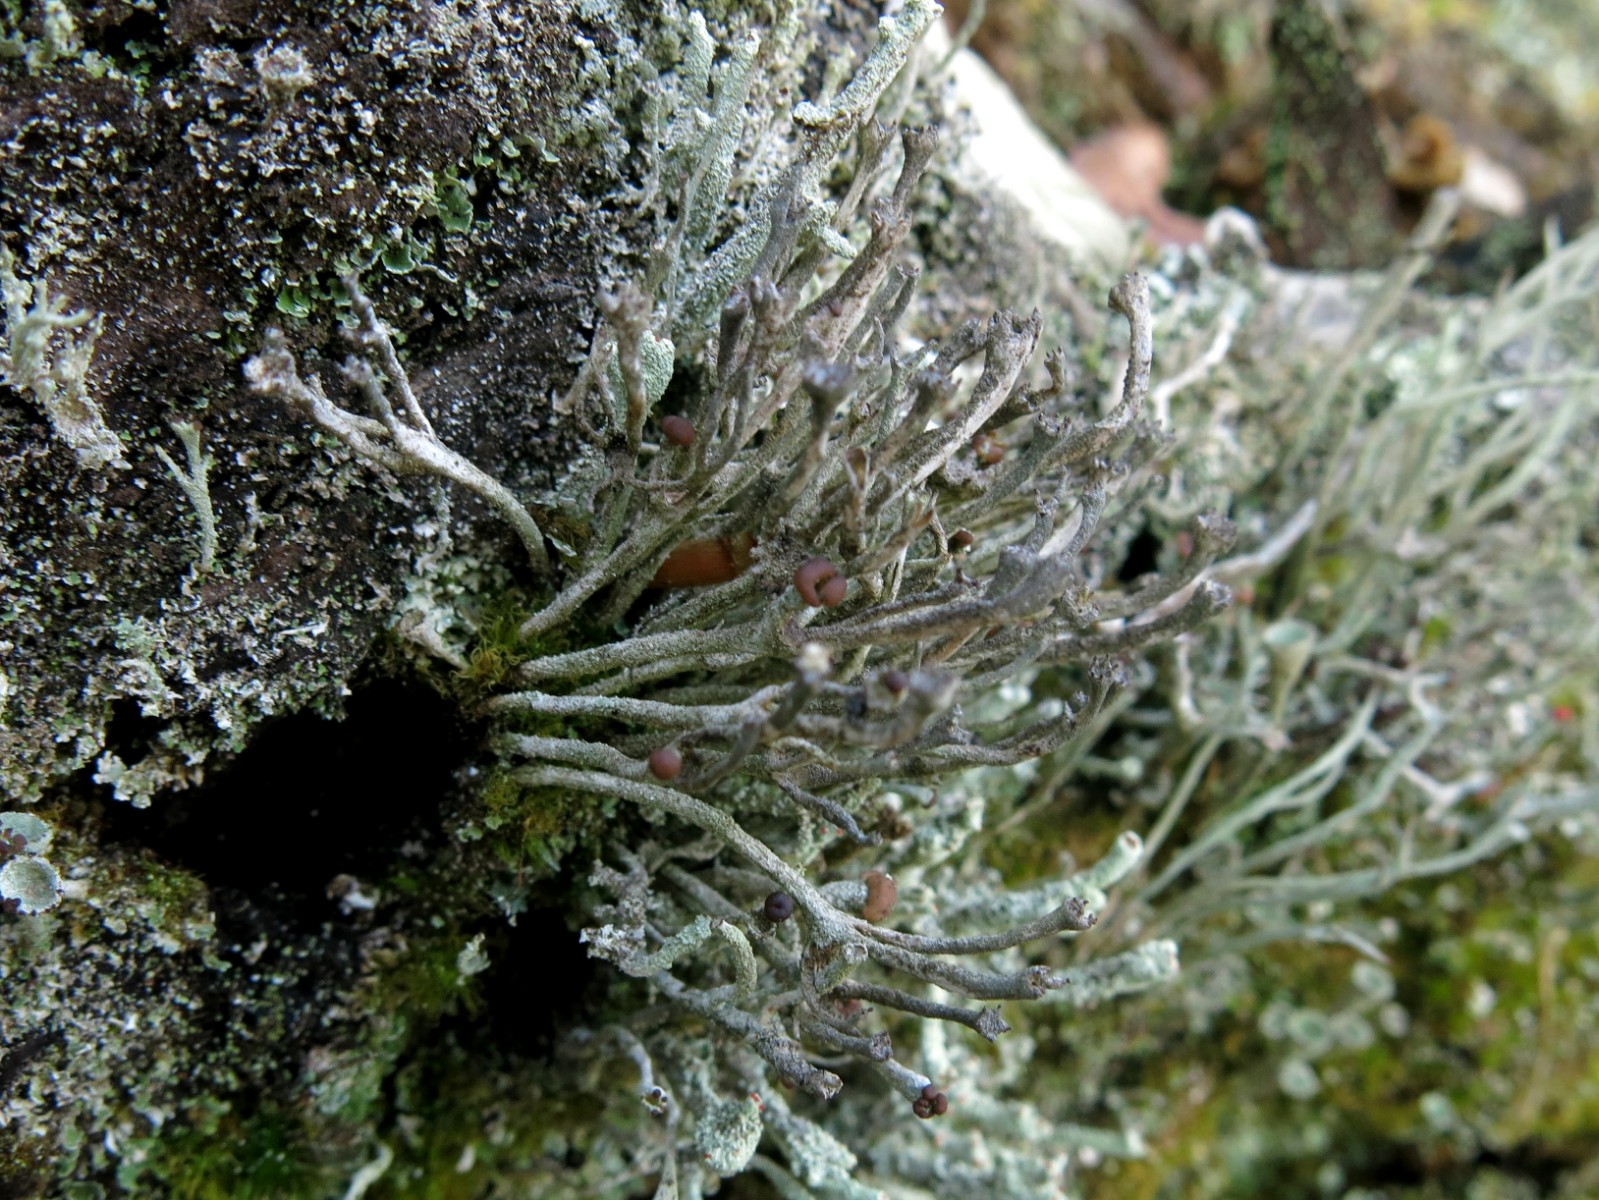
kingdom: Fungi
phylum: Ascomycota
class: Lecanoromycetes
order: Lecanorales
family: Cladoniaceae
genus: Cladonia
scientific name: Cladonia ochrochlora
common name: stød-bægerlav
